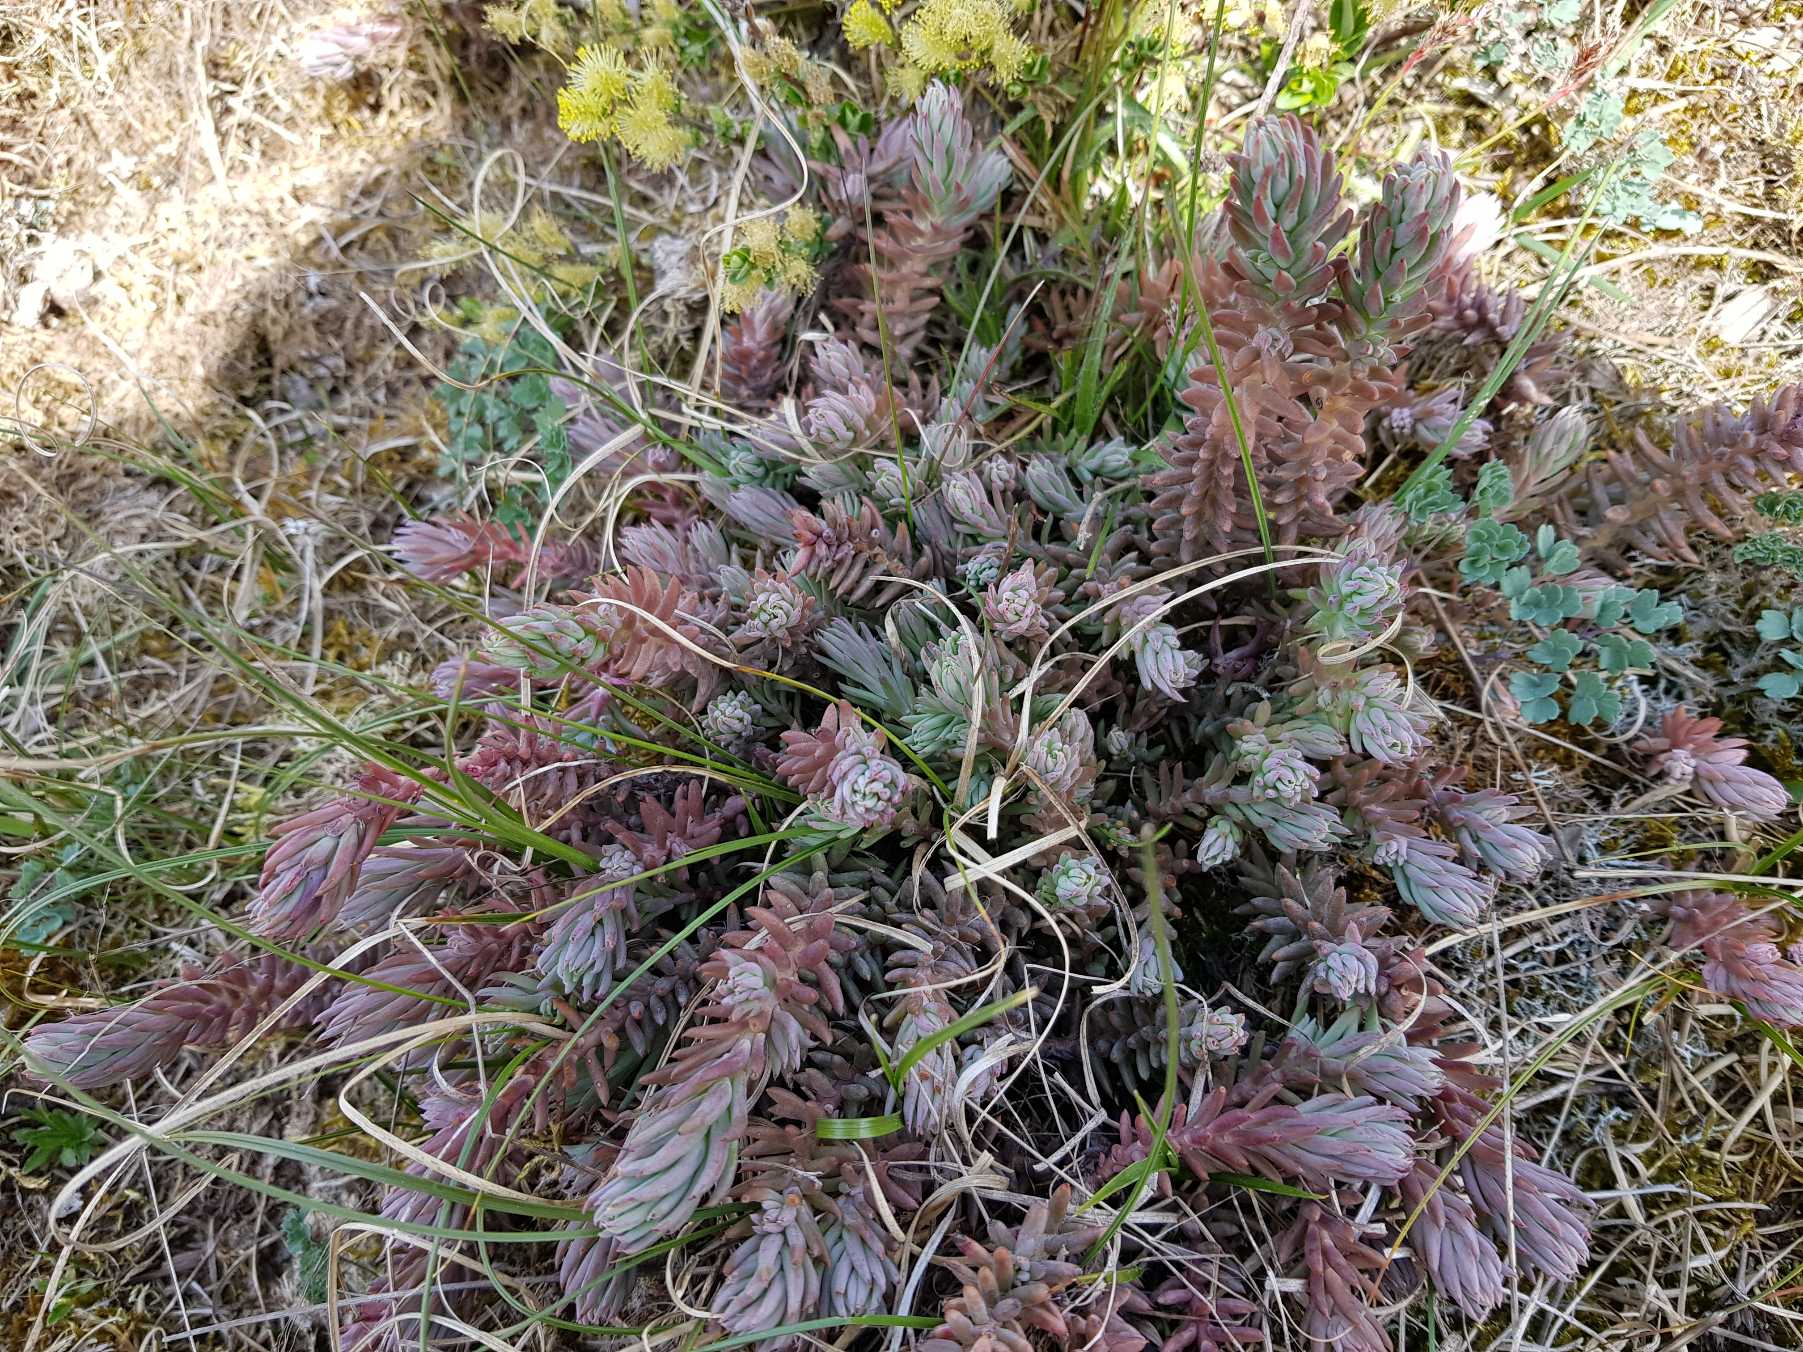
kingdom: Plantae
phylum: Tracheophyta
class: Magnoliopsida
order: Saxifragales
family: Crassulaceae
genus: Petrosedum
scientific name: Petrosedum rupestre
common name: Bjerg-stenurt
